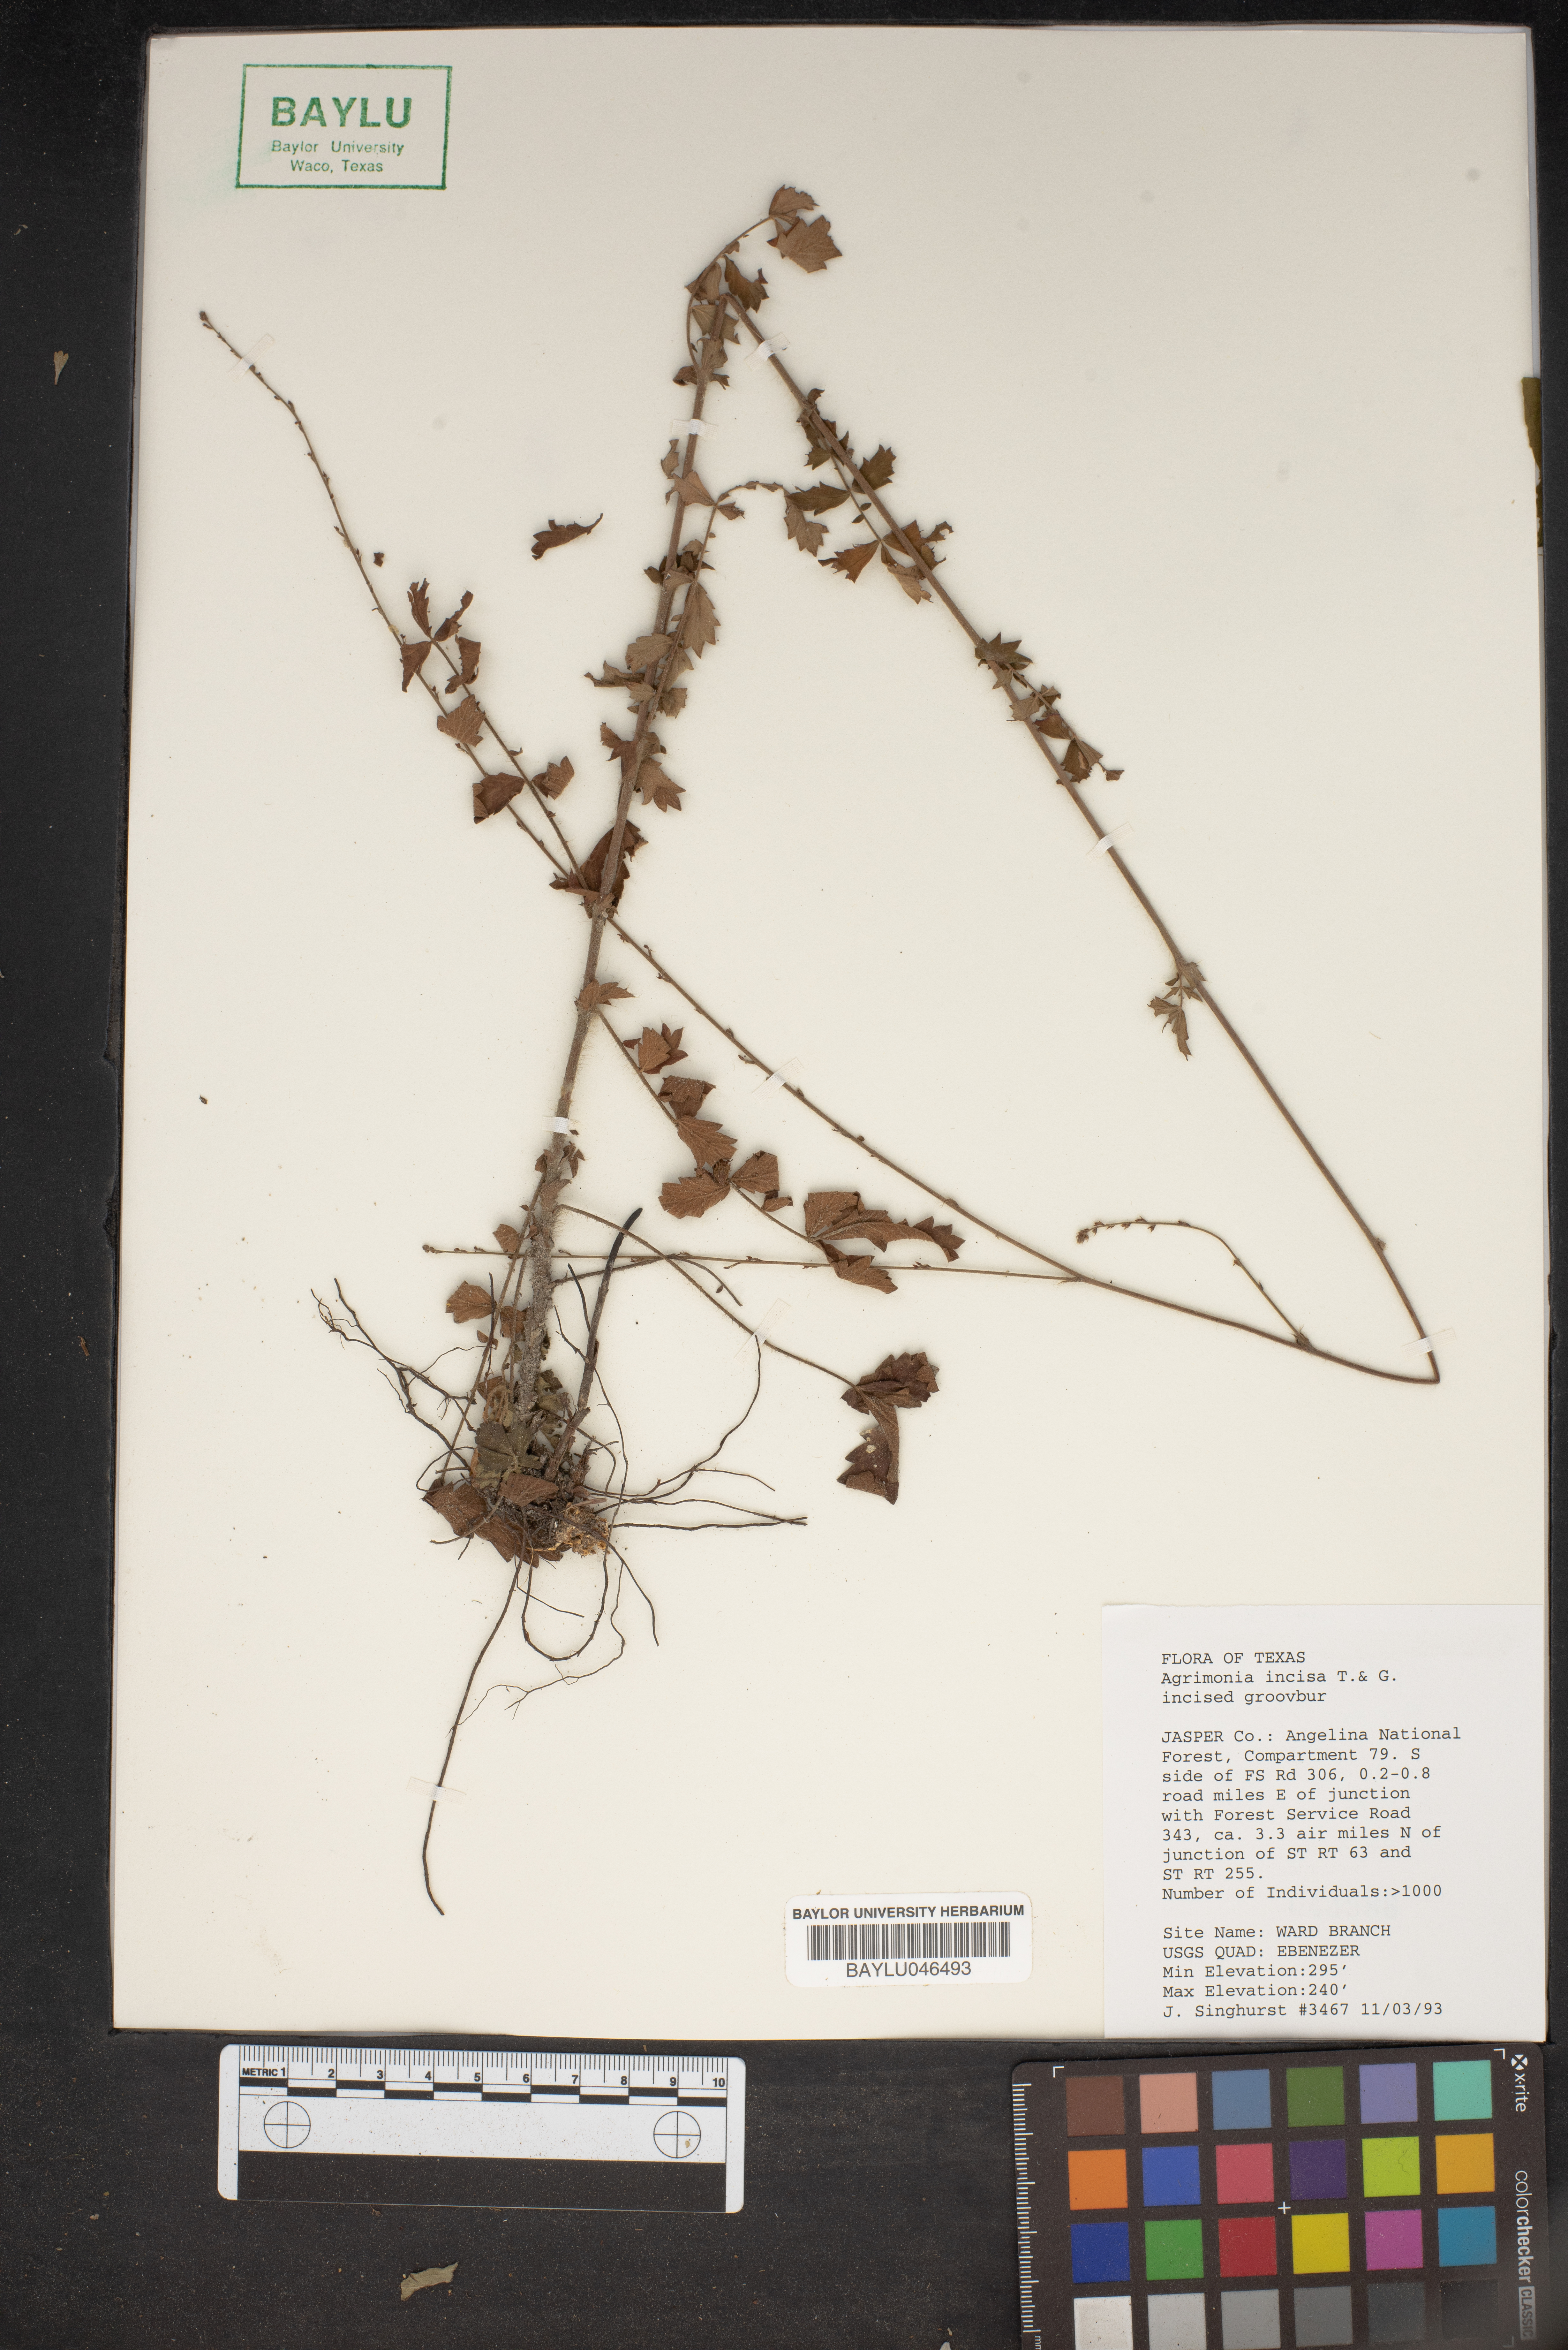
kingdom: Plantae
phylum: Tracheophyta
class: Magnoliopsida
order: Rosales
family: Rosaceae
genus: Agrimonia
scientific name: Agrimonia incisa
